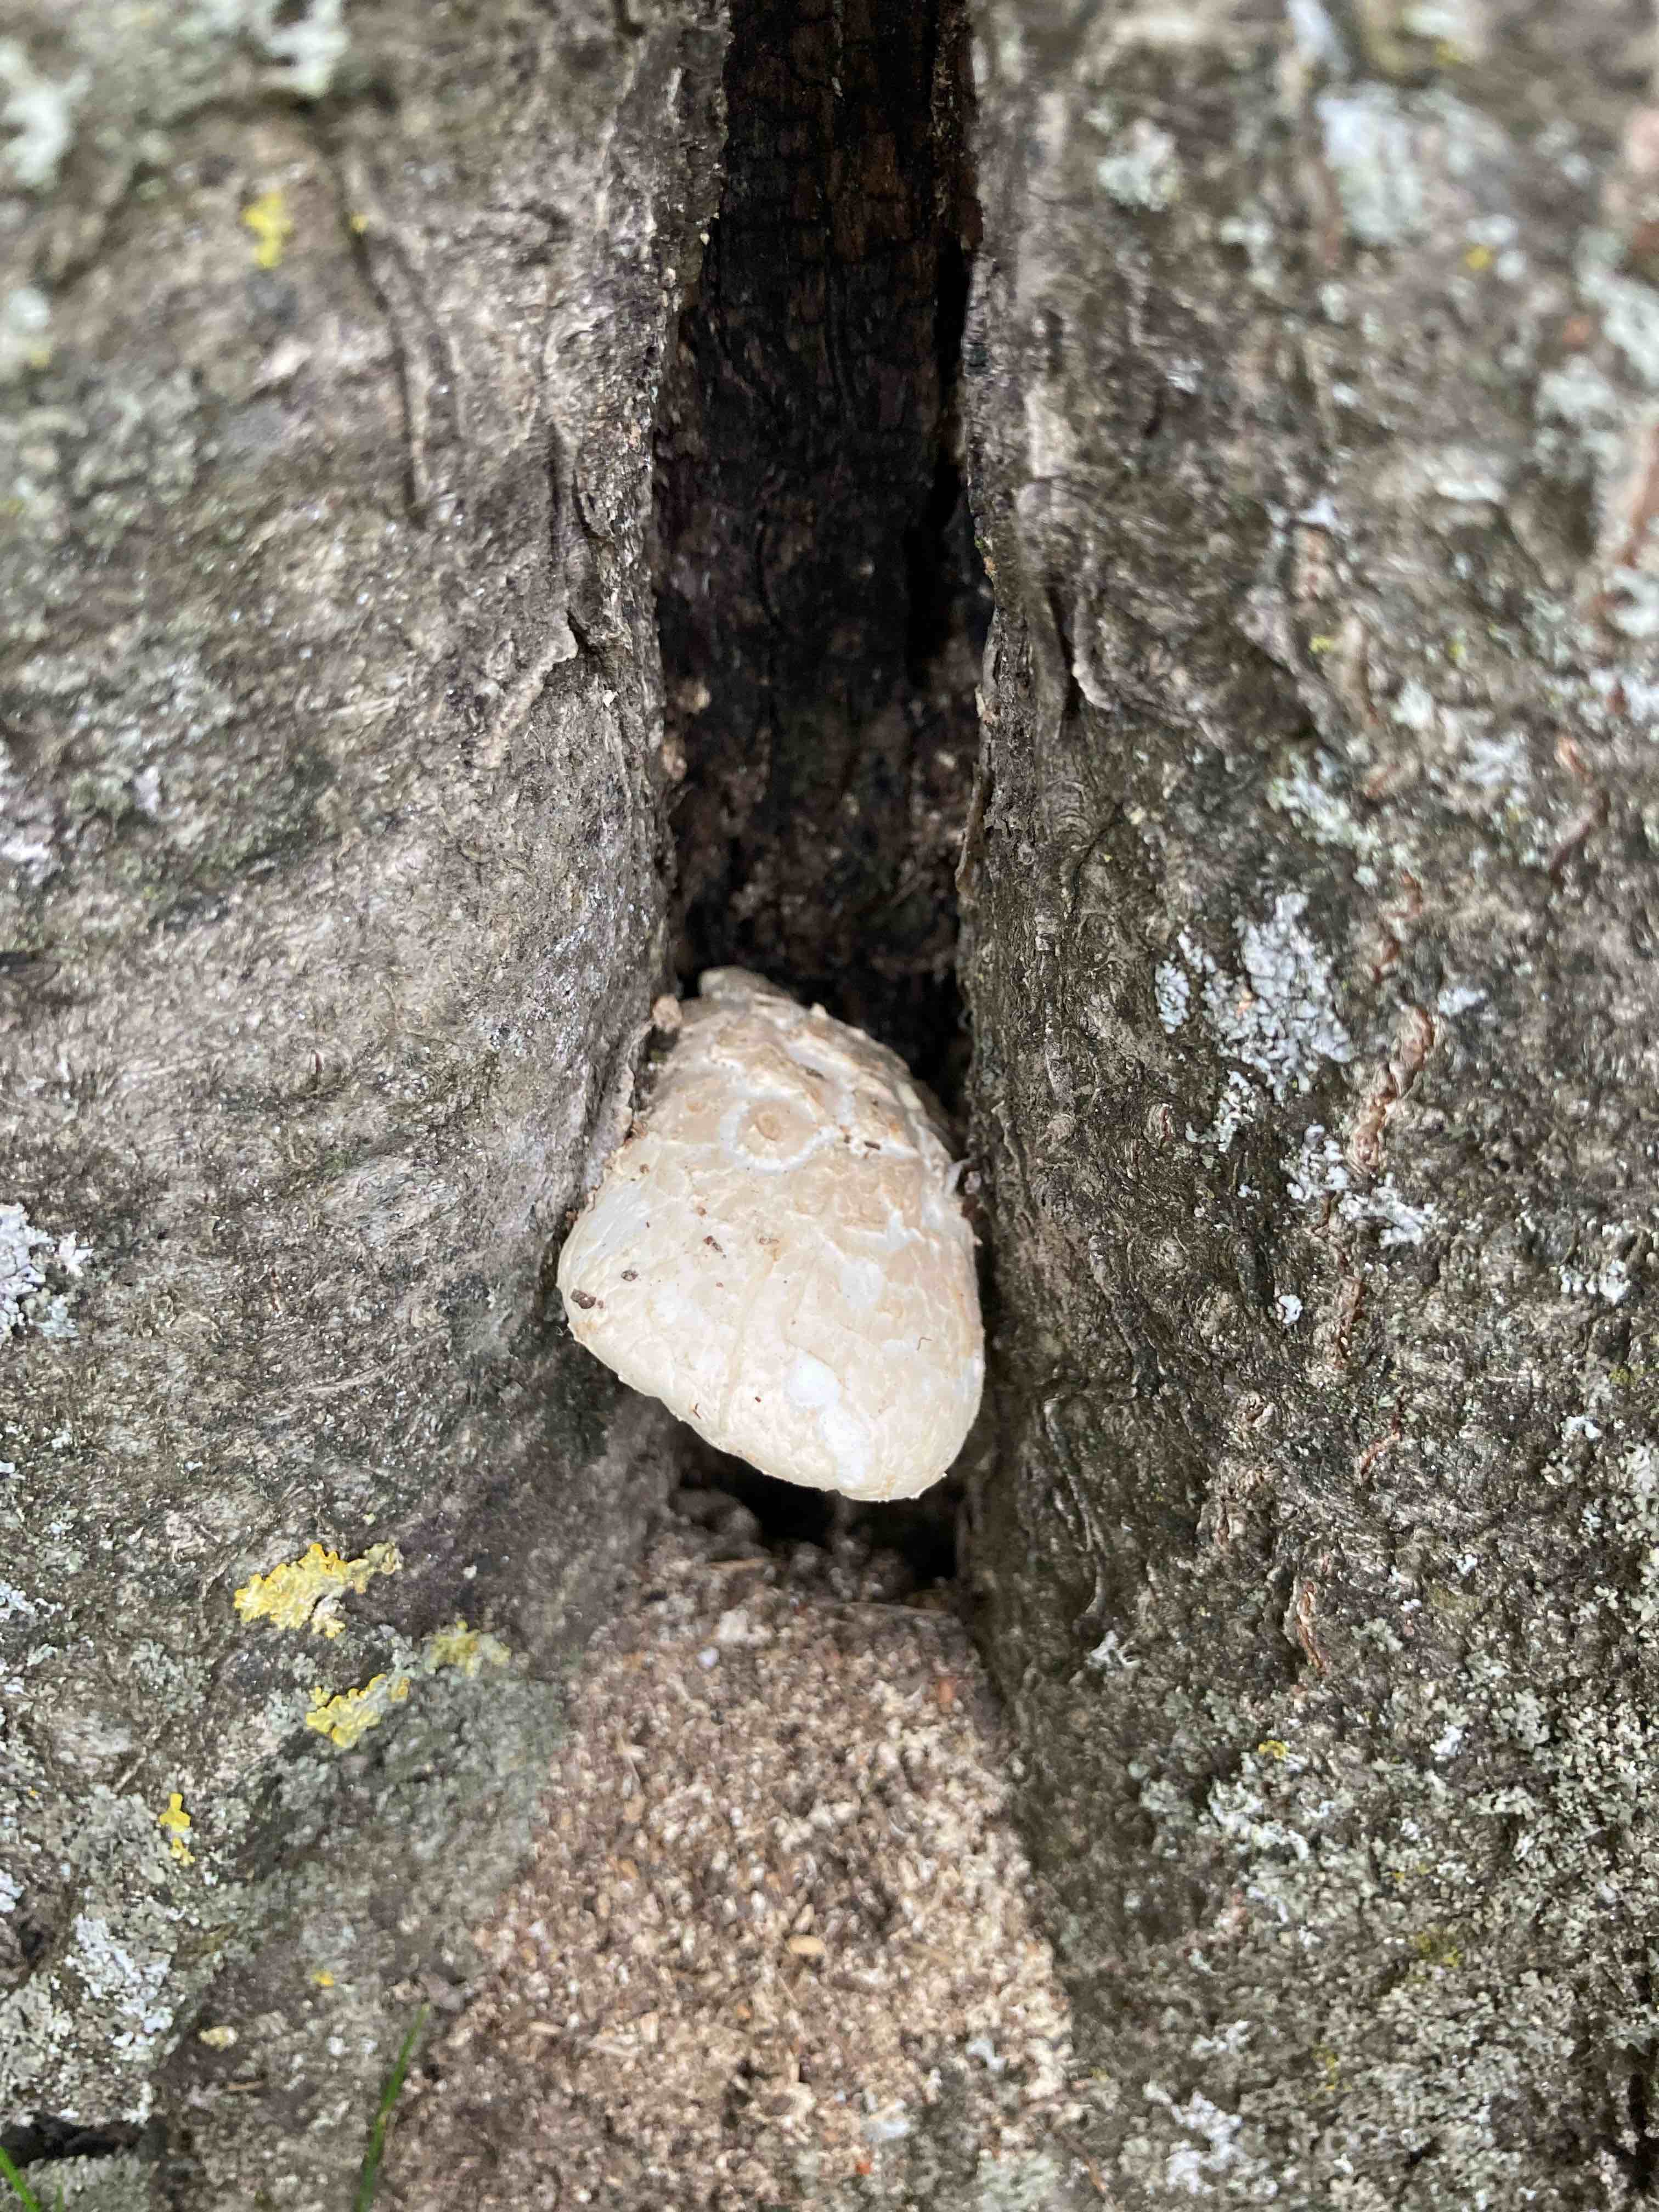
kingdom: Fungi
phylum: Basidiomycota
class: Agaricomycetes
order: Agaricales
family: Pleurotaceae
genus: Pleurotus
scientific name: Pleurotus dryinus
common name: korkagtig østershat
